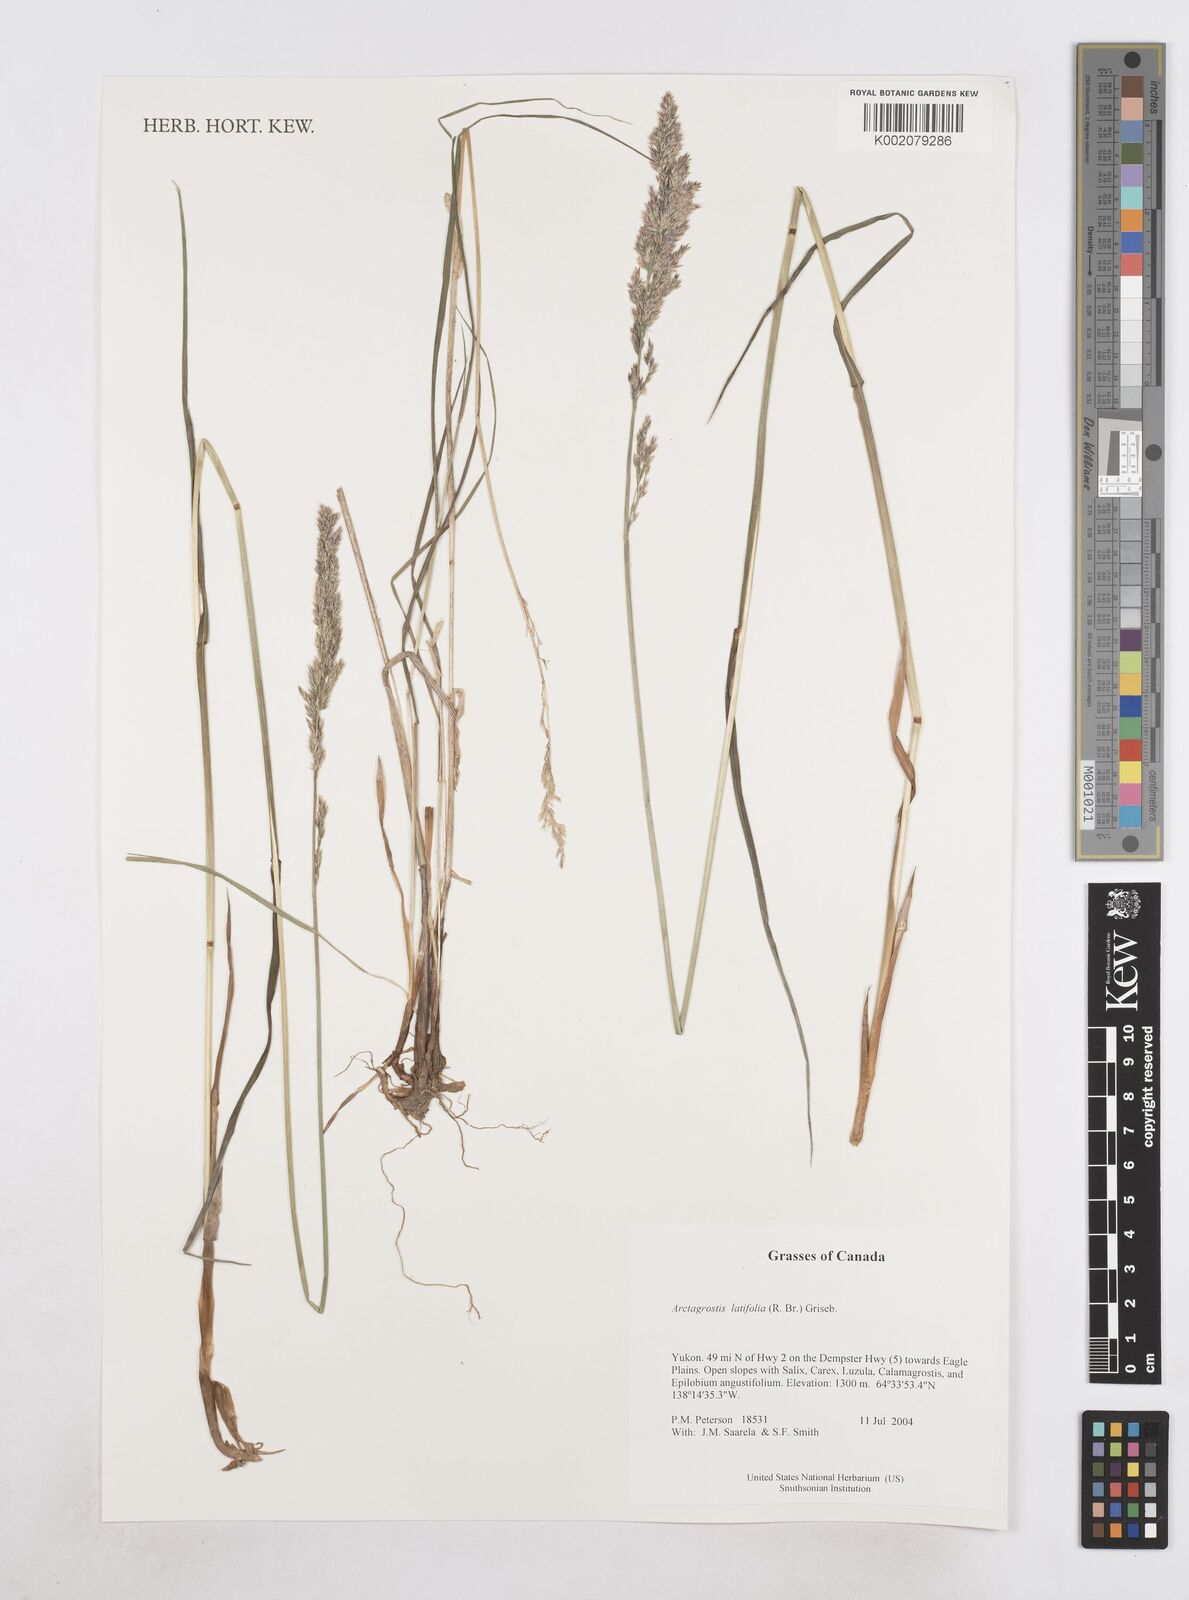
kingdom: Plantae
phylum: Tracheophyta
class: Liliopsida
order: Poales
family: Poaceae
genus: Arctagrostis
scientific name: Arctagrostis latifolia
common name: Arctic grass
